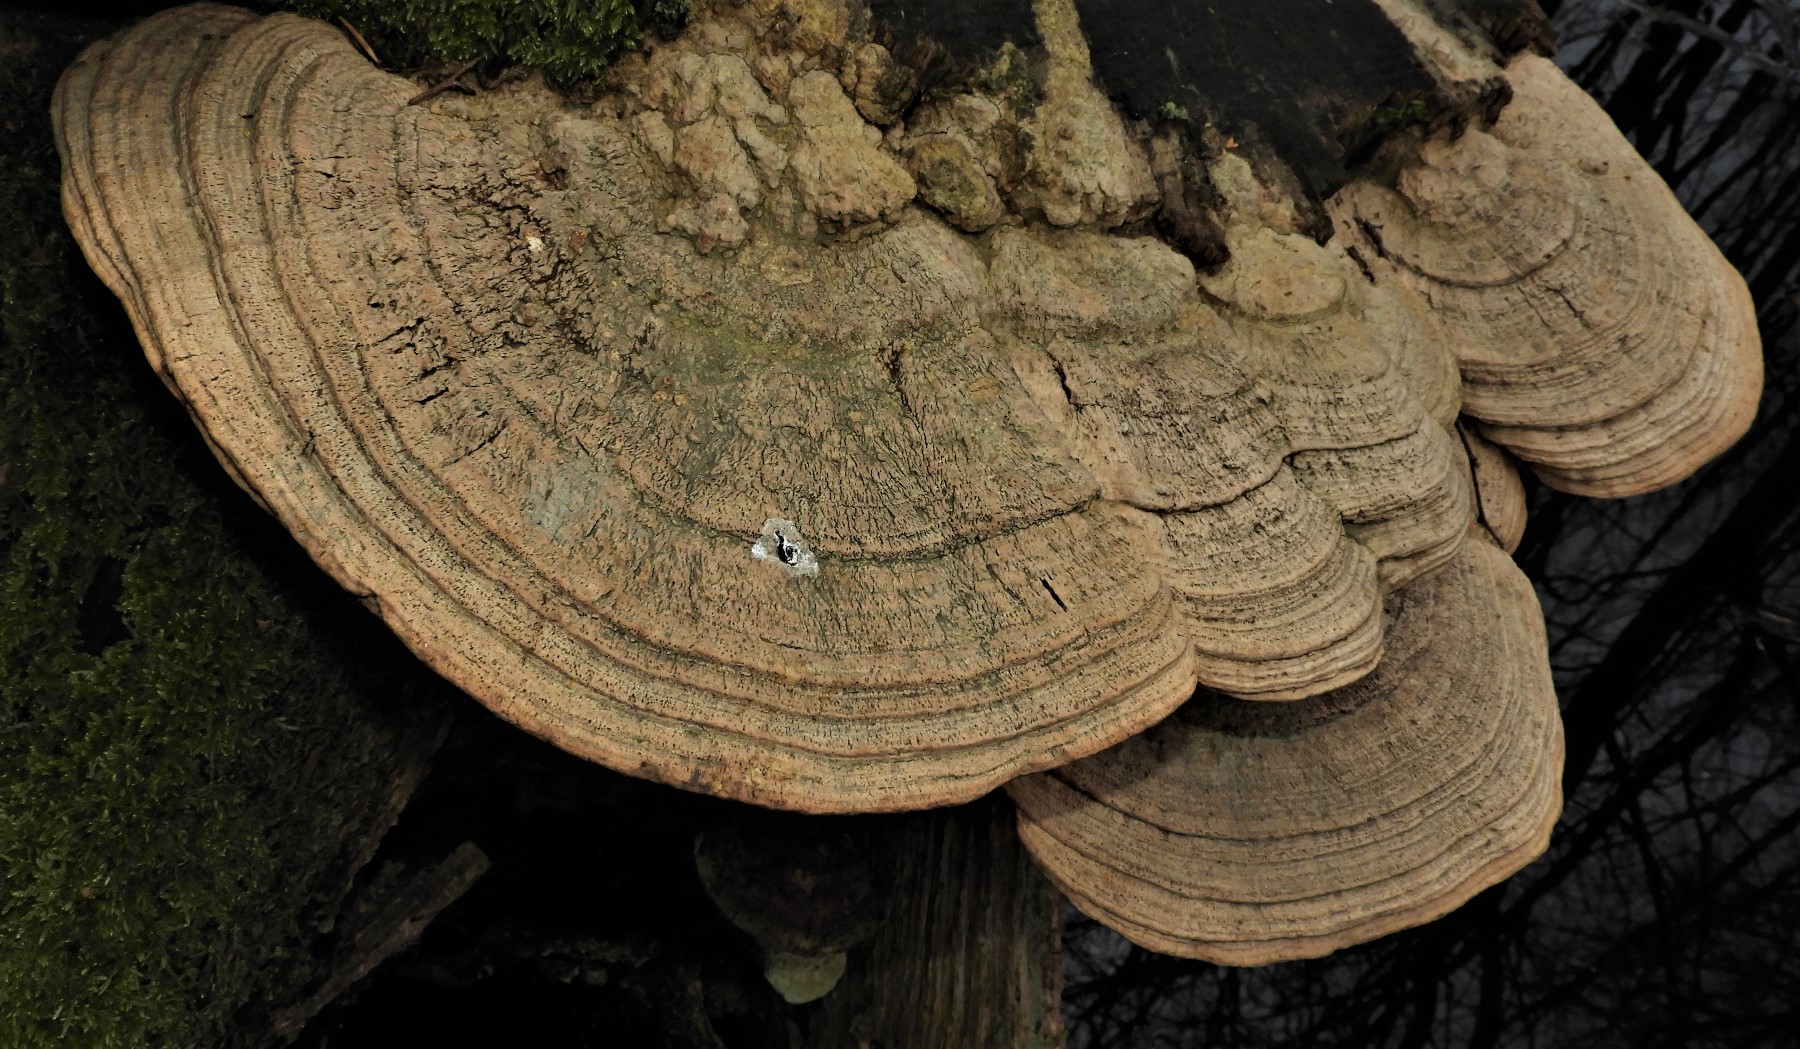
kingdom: Fungi
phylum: Basidiomycota
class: Agaricomycetes
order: Polyporales
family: Fomitopsidaceae
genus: Daedalea
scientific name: Daedalea quercina
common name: ege-labyrintsvamp
